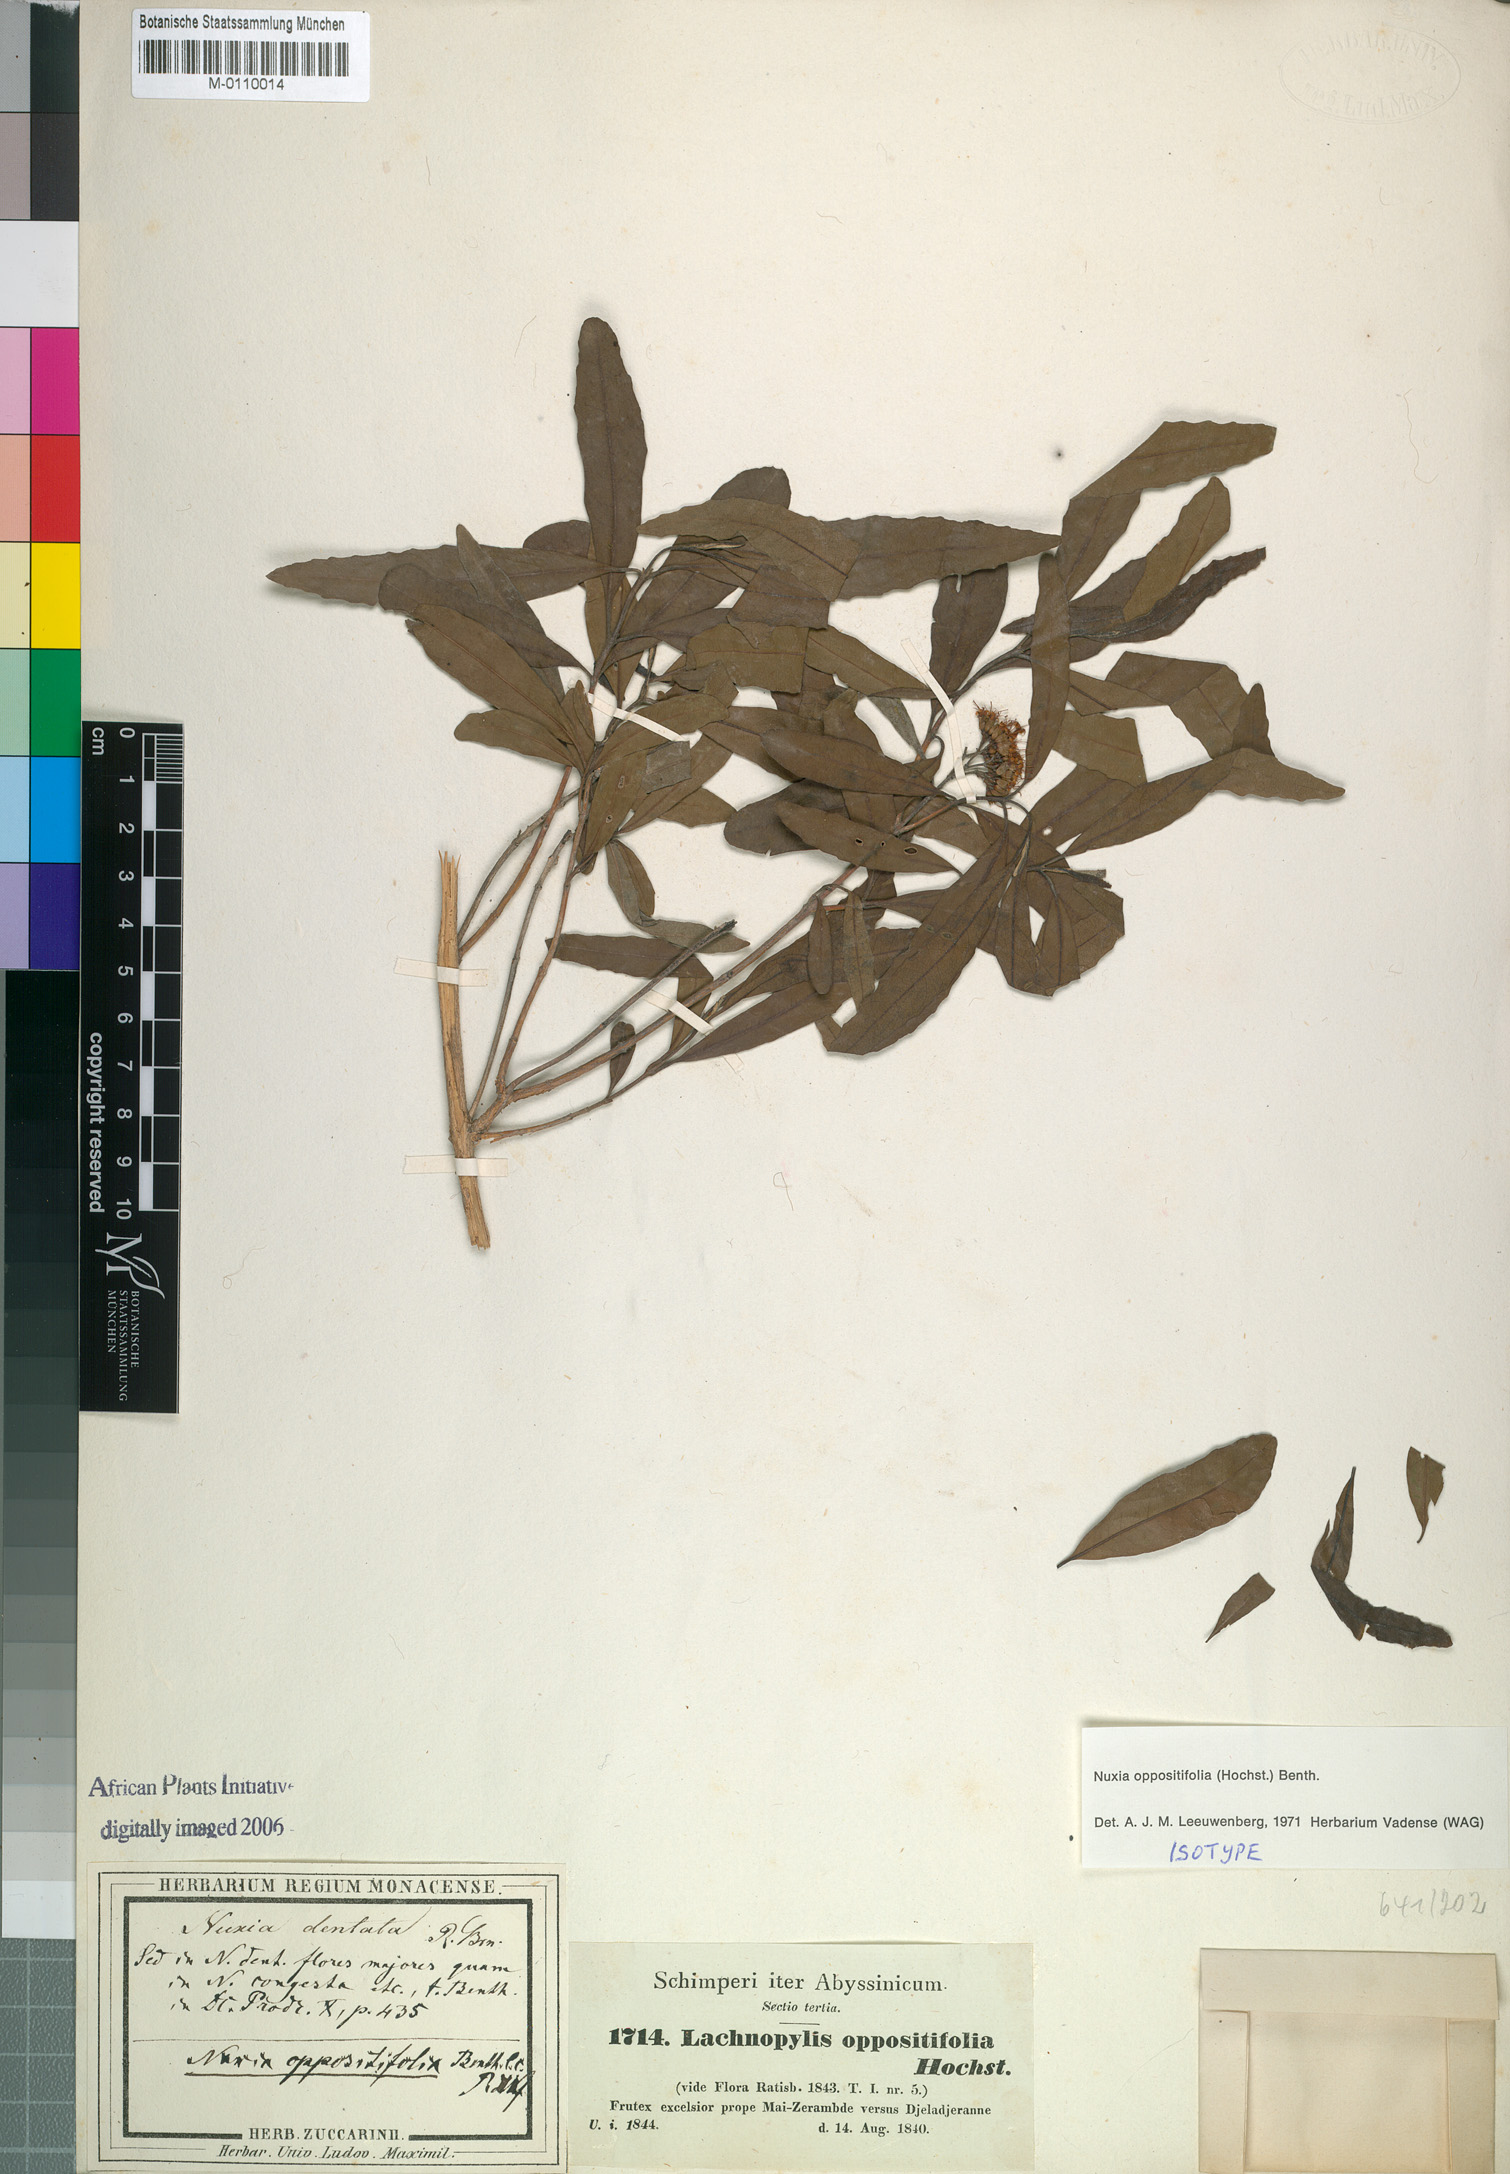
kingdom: Plantae
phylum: Tracheophyta
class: Magnoliopsida
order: Lamiales
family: Stilbaceae
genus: Nuxia
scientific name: Nuxia oppositifolia
